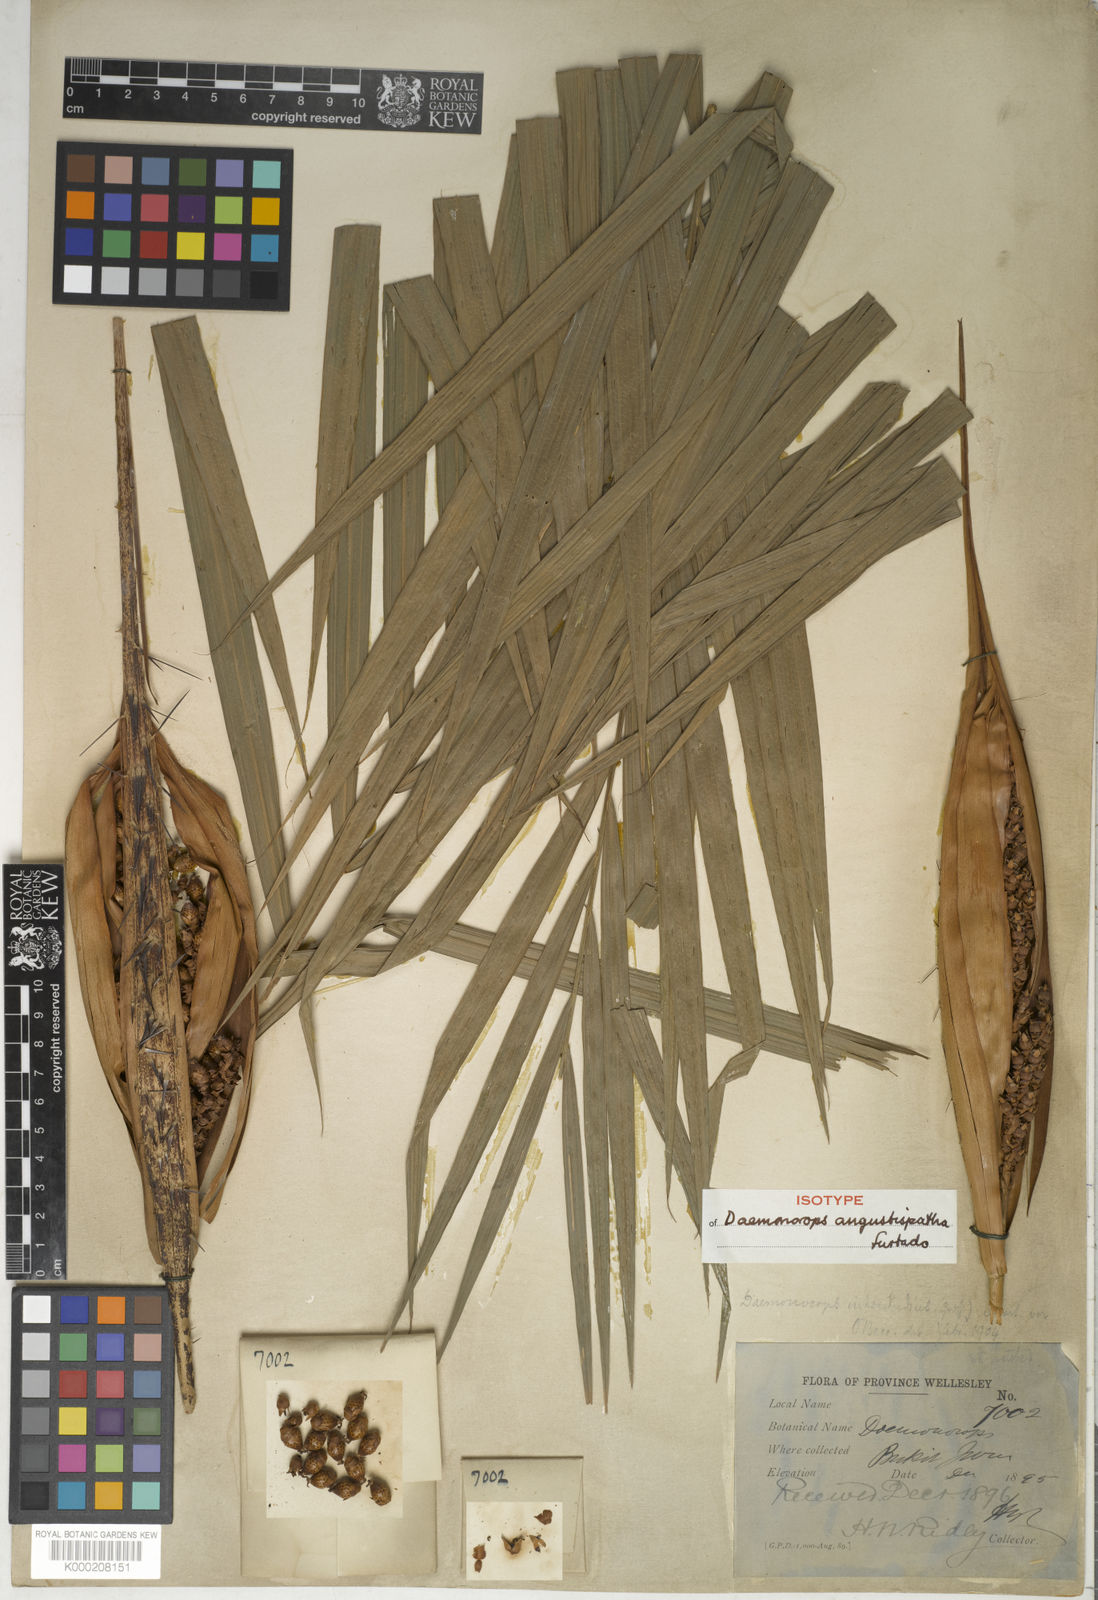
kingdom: Plantae
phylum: Tracheophyta
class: Liliopsida
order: Arecales
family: Arecaceae
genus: Calamus
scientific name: Calamus melanochaetes
